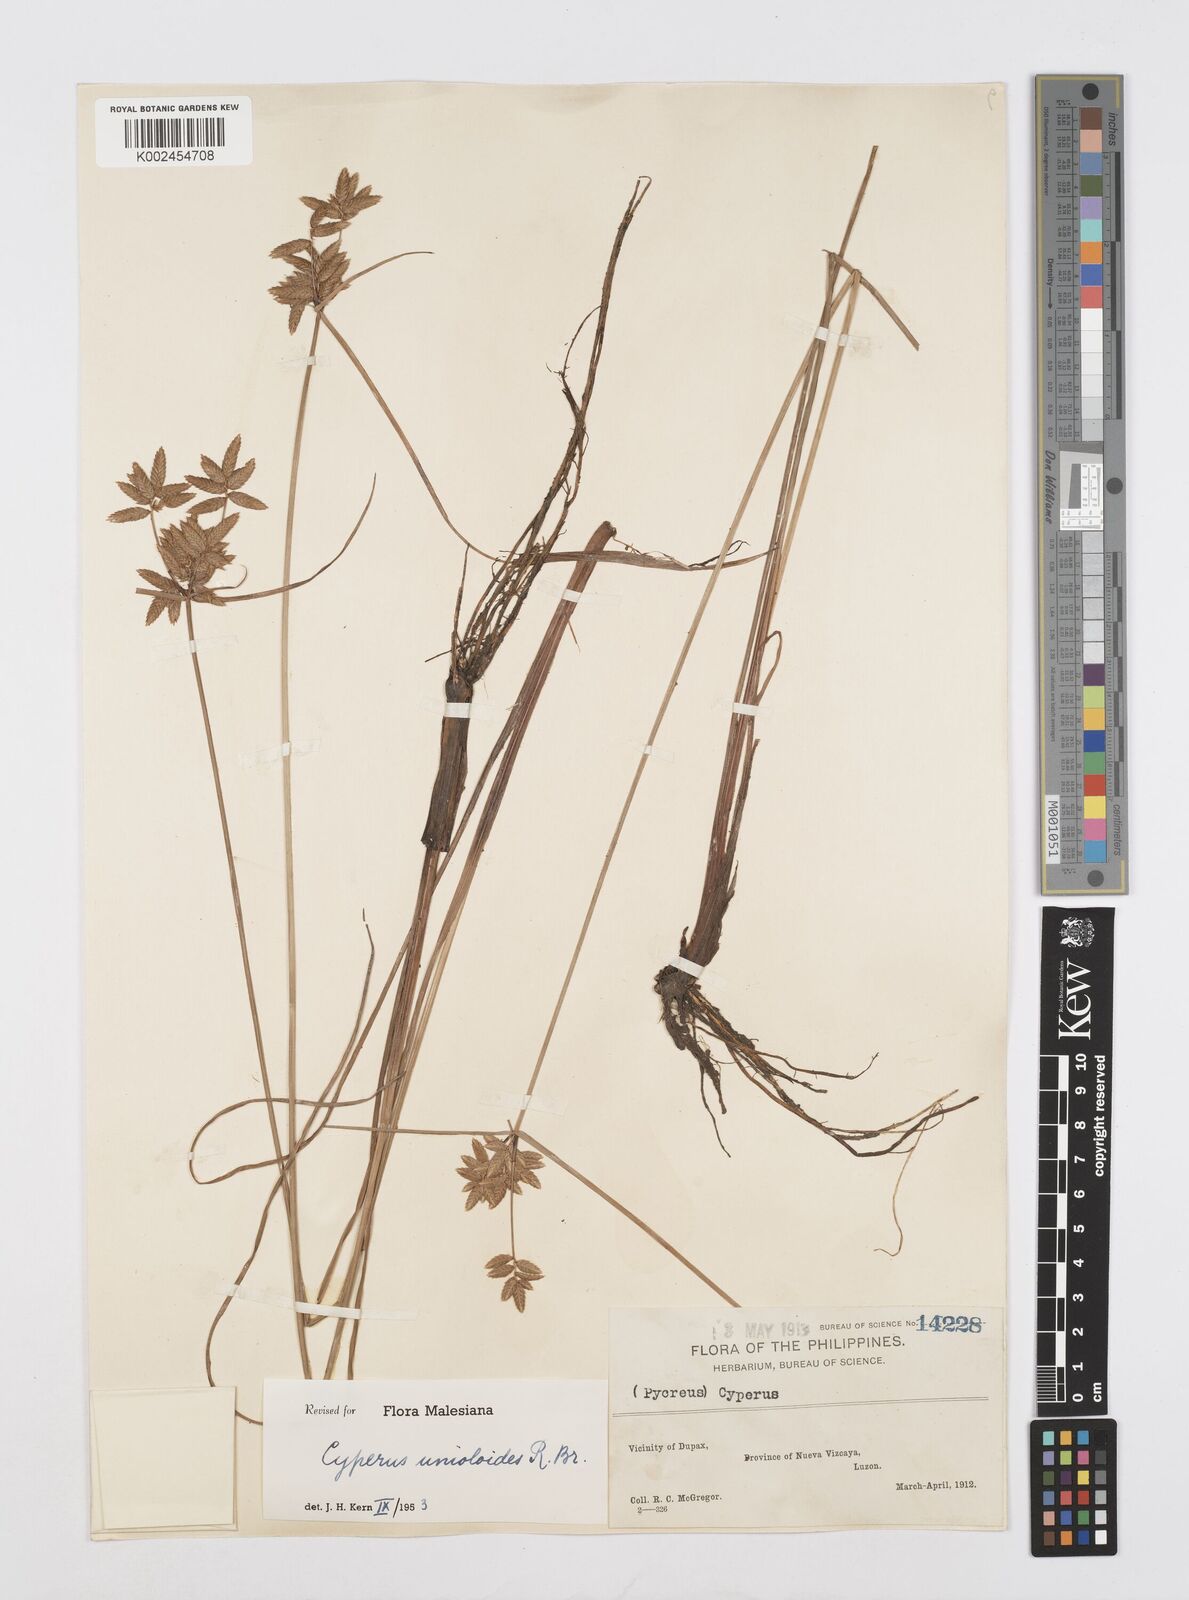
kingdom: Plantae
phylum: Tracheophyta
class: Liliopsida
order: Poales
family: Cyperaceae
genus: Cyperus
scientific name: Cyperus unioloides
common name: Uniola flatsedge
